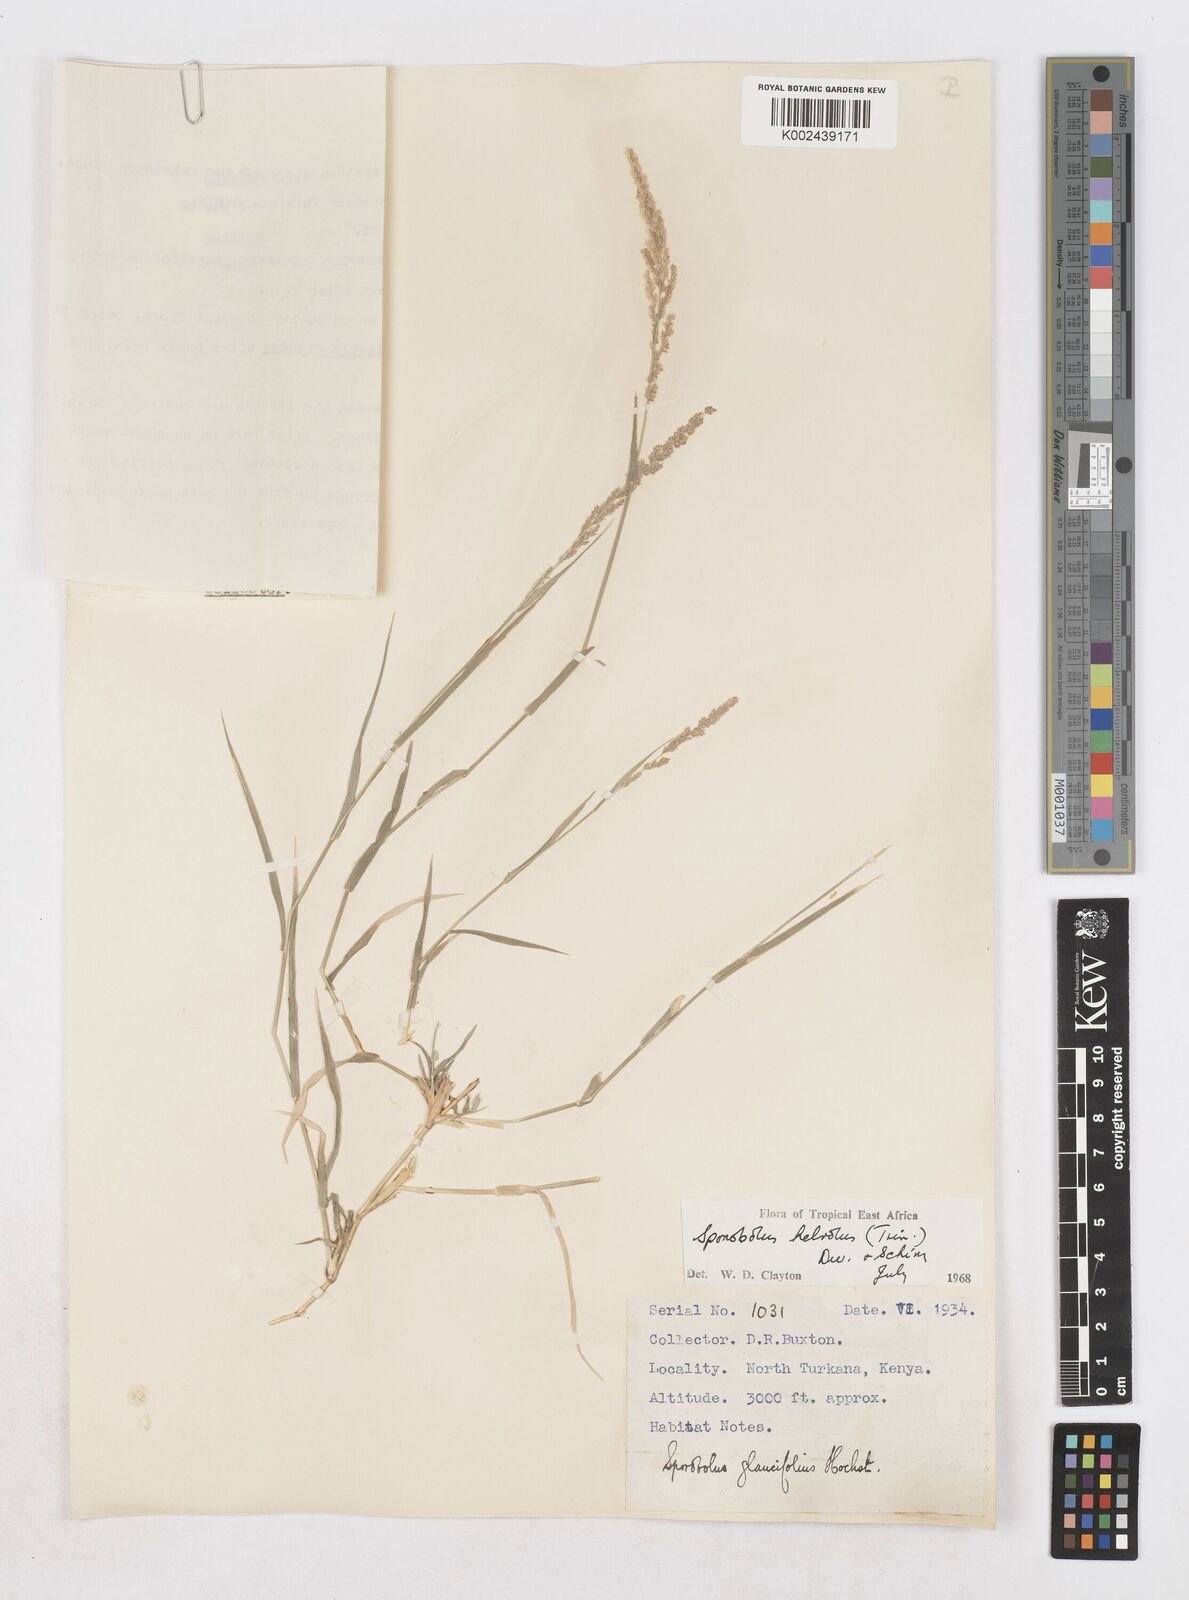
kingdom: Plantae
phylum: Tracheophyta
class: Liliopsida
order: Poales
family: Poaceae
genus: Sporobolus
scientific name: Sporobolus helvolus
